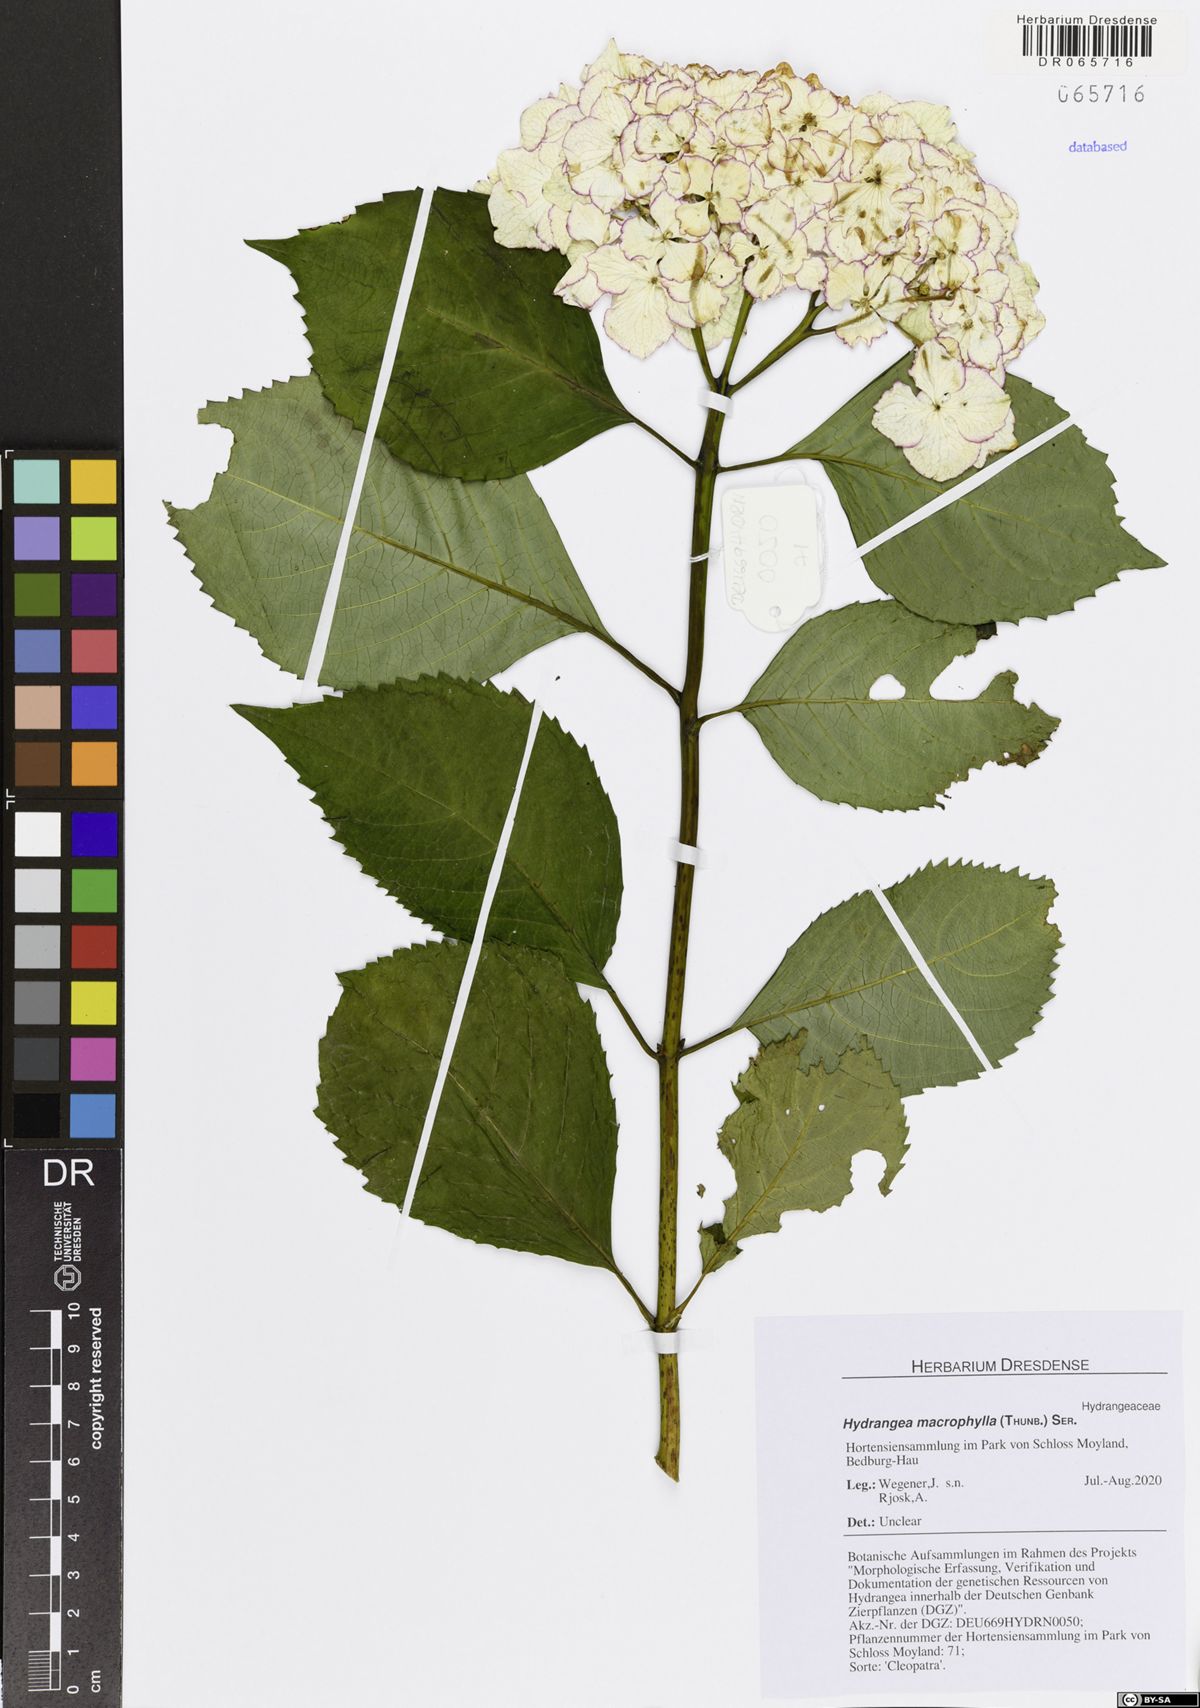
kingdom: Plantae
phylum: Tracheophyta
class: Magnoliopsida
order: Cornales
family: Hydrangeaceae
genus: Hydrangea
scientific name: Hydrangea macrophylla
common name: Hydrangea
